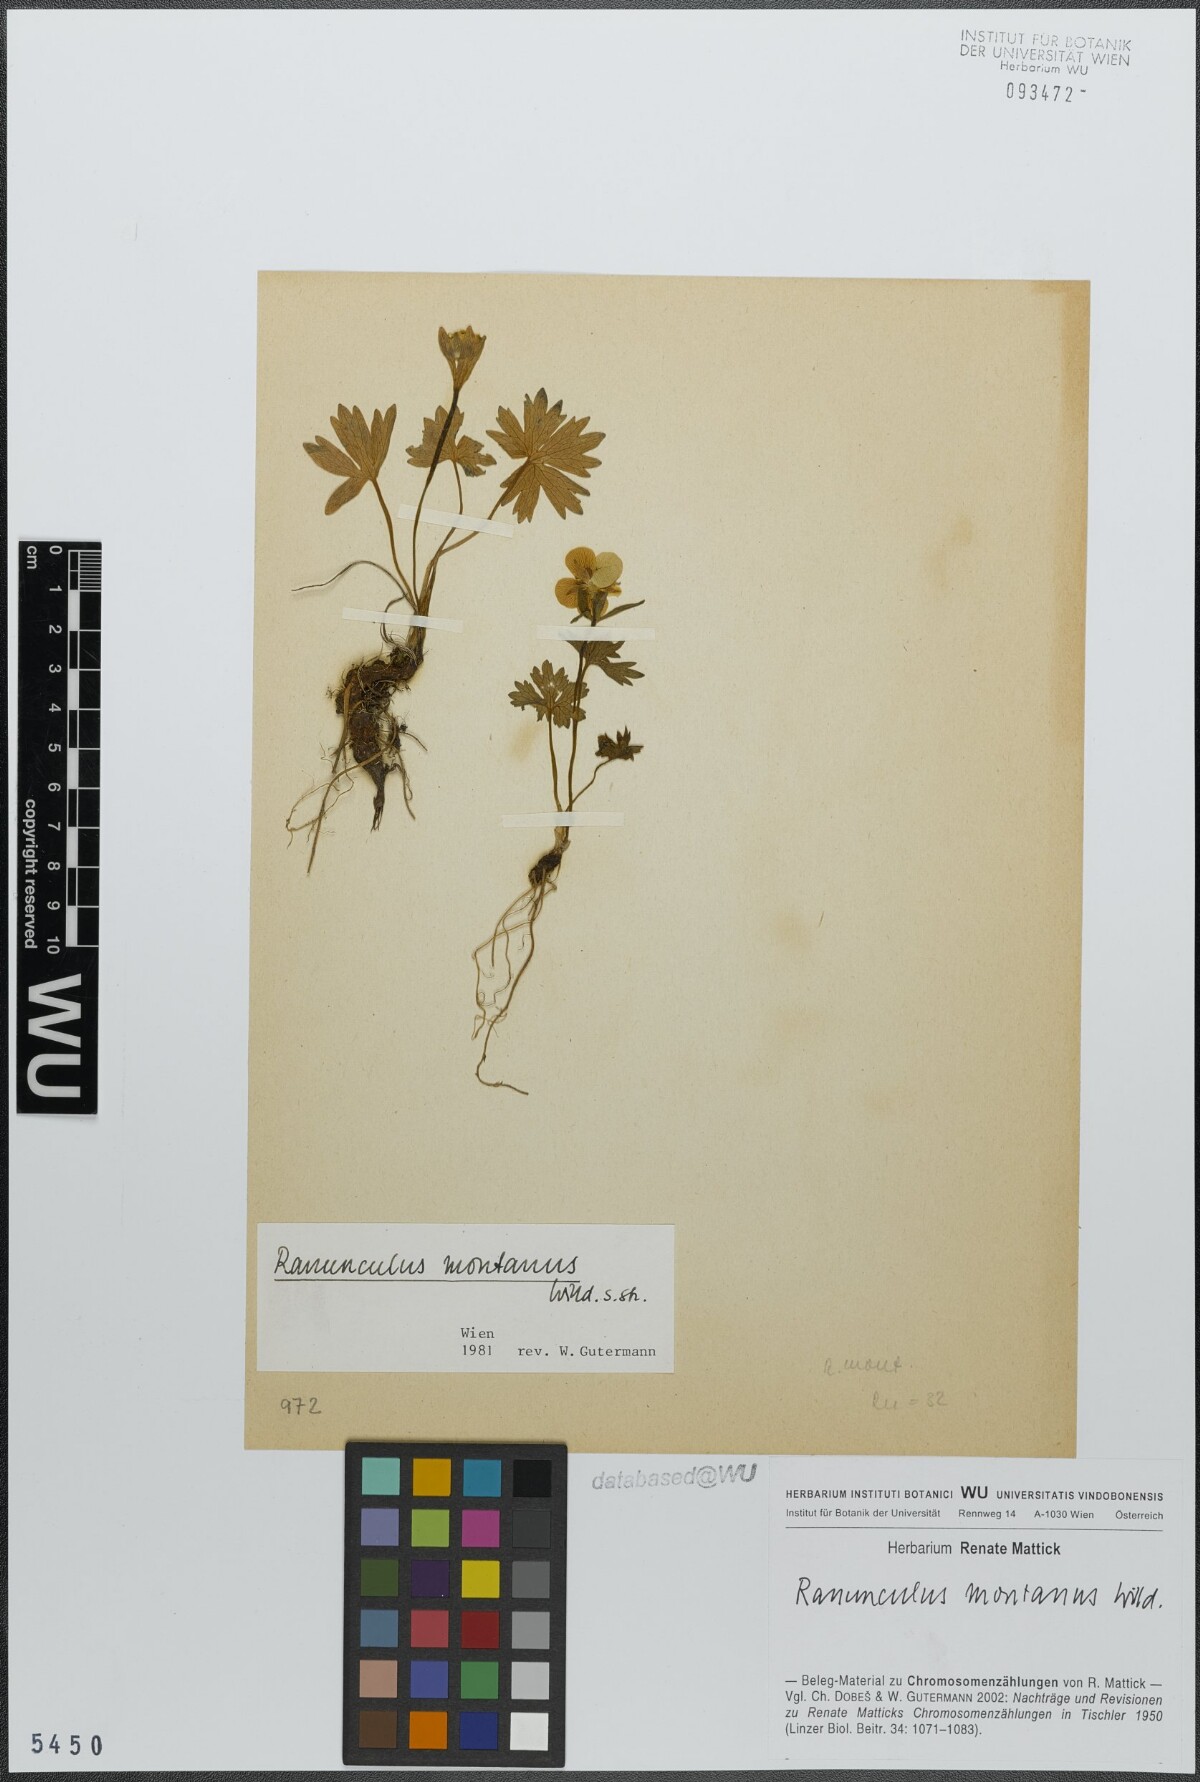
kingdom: Plantae
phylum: Tracheophyta
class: Magnoliopsida
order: Ranunculales
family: Ranunculaceae
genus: Ranunculus
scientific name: Ranunculus montanus
